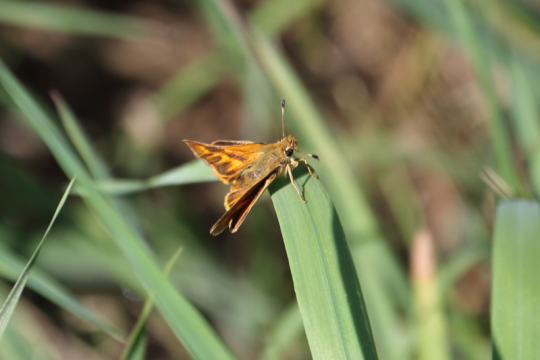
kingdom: Animalia
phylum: Arthropoda
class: Insecta
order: Lepidoptera
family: Hesperiidae
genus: Ochlodes
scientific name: Ochlodes sylvanoides
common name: Woodland Skipper
